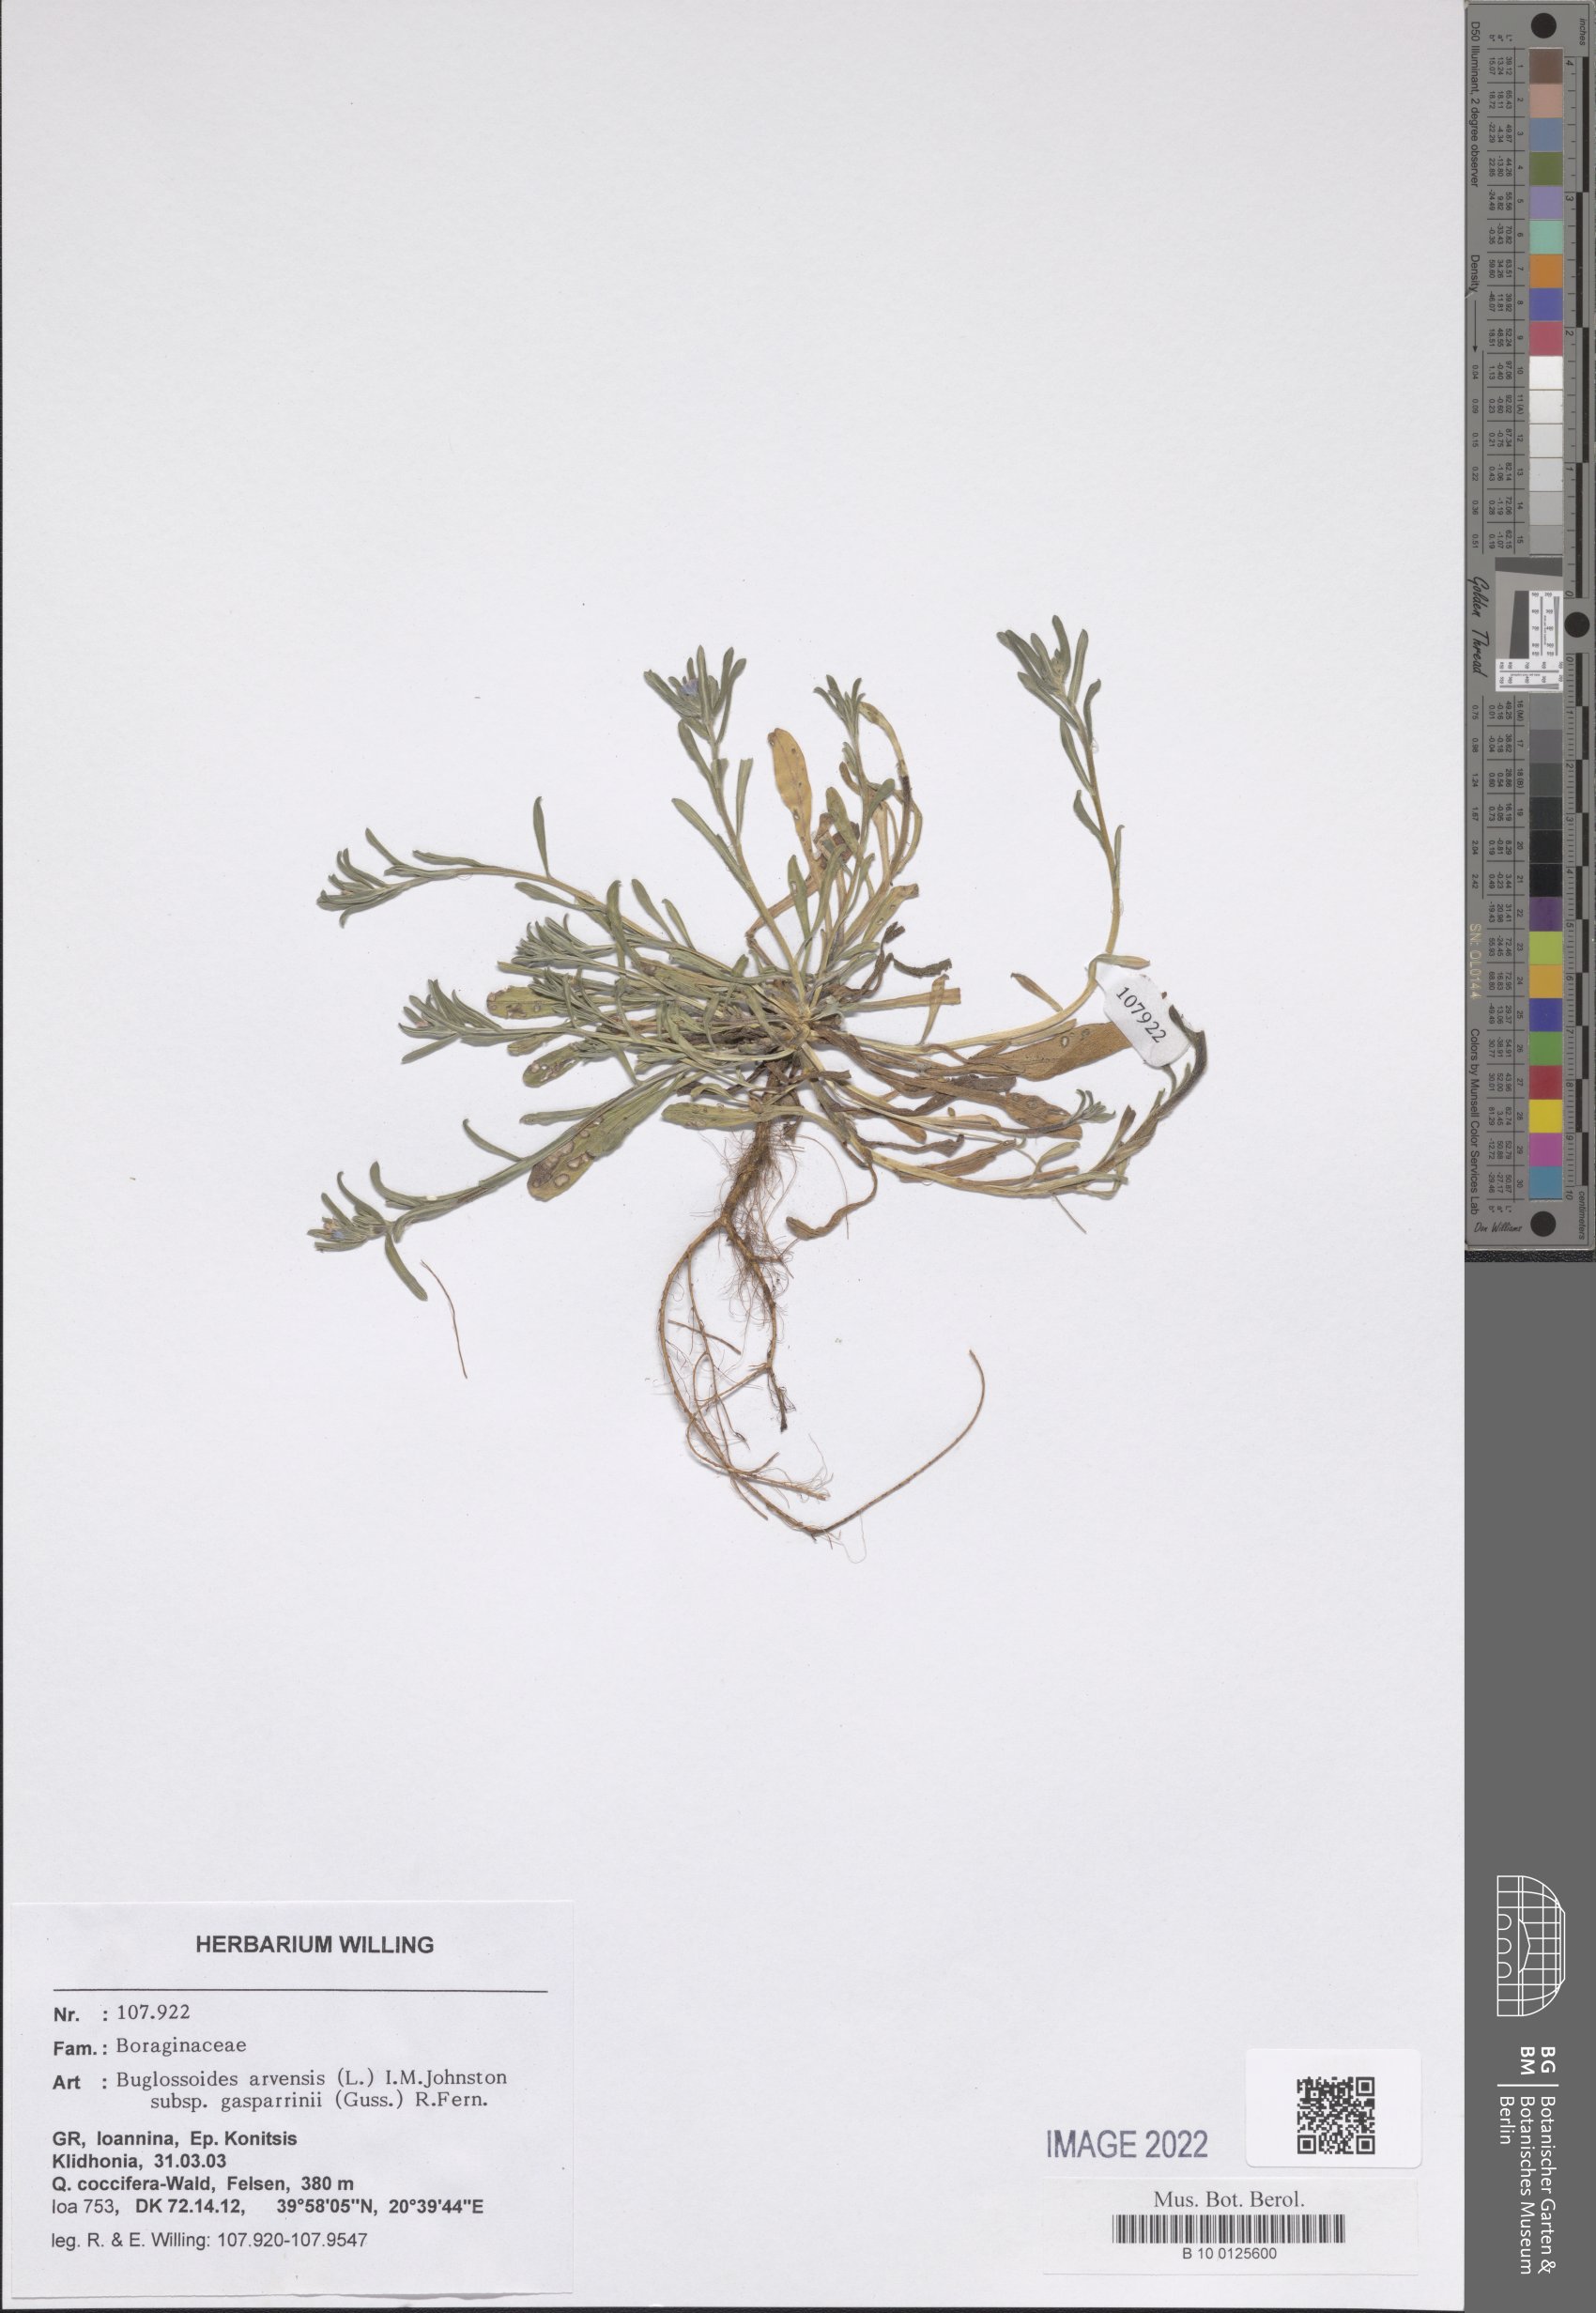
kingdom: Plantae
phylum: Tracheophyta
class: Magnoliopsida
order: Boraginales
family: Boraginaceae
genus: Buglossoides
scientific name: Buglossoides incrassata
